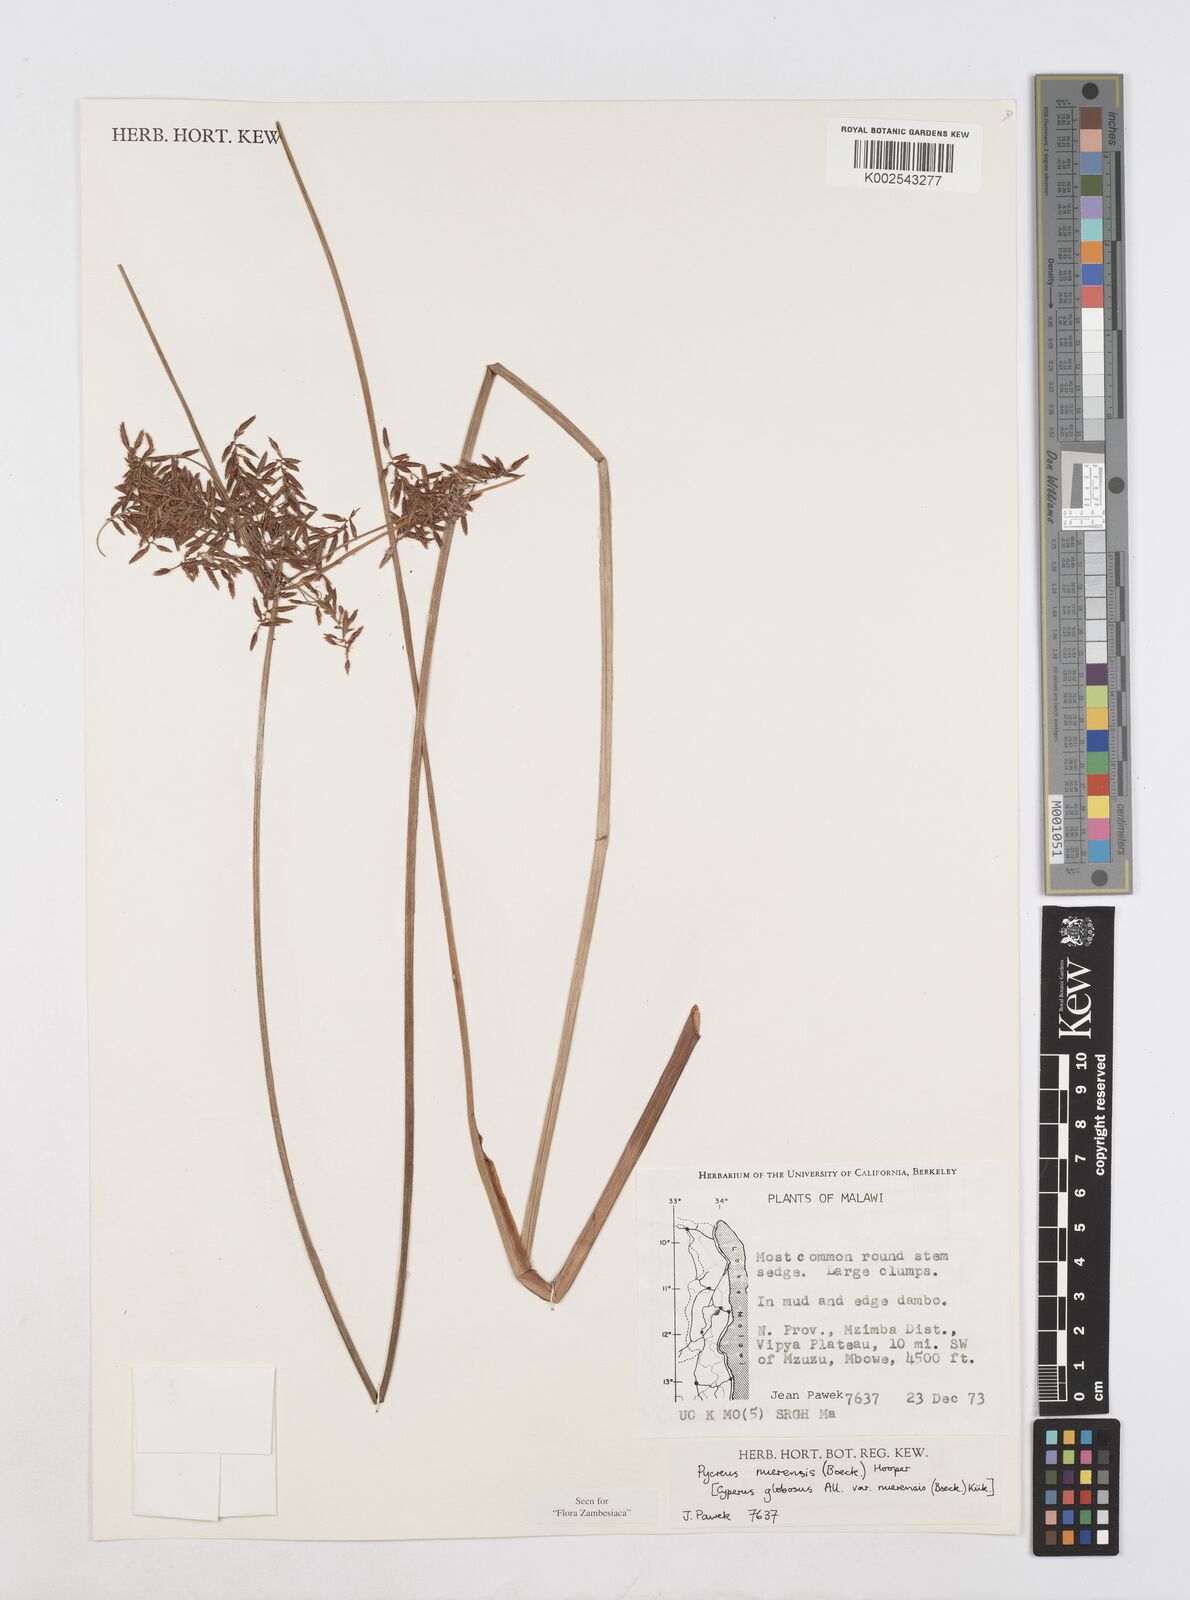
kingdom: Plantae
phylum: Tracheophyta
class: Liliopsida
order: Poales
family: Cyperaceae
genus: Cyperus
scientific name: Cyperus nuerensis
